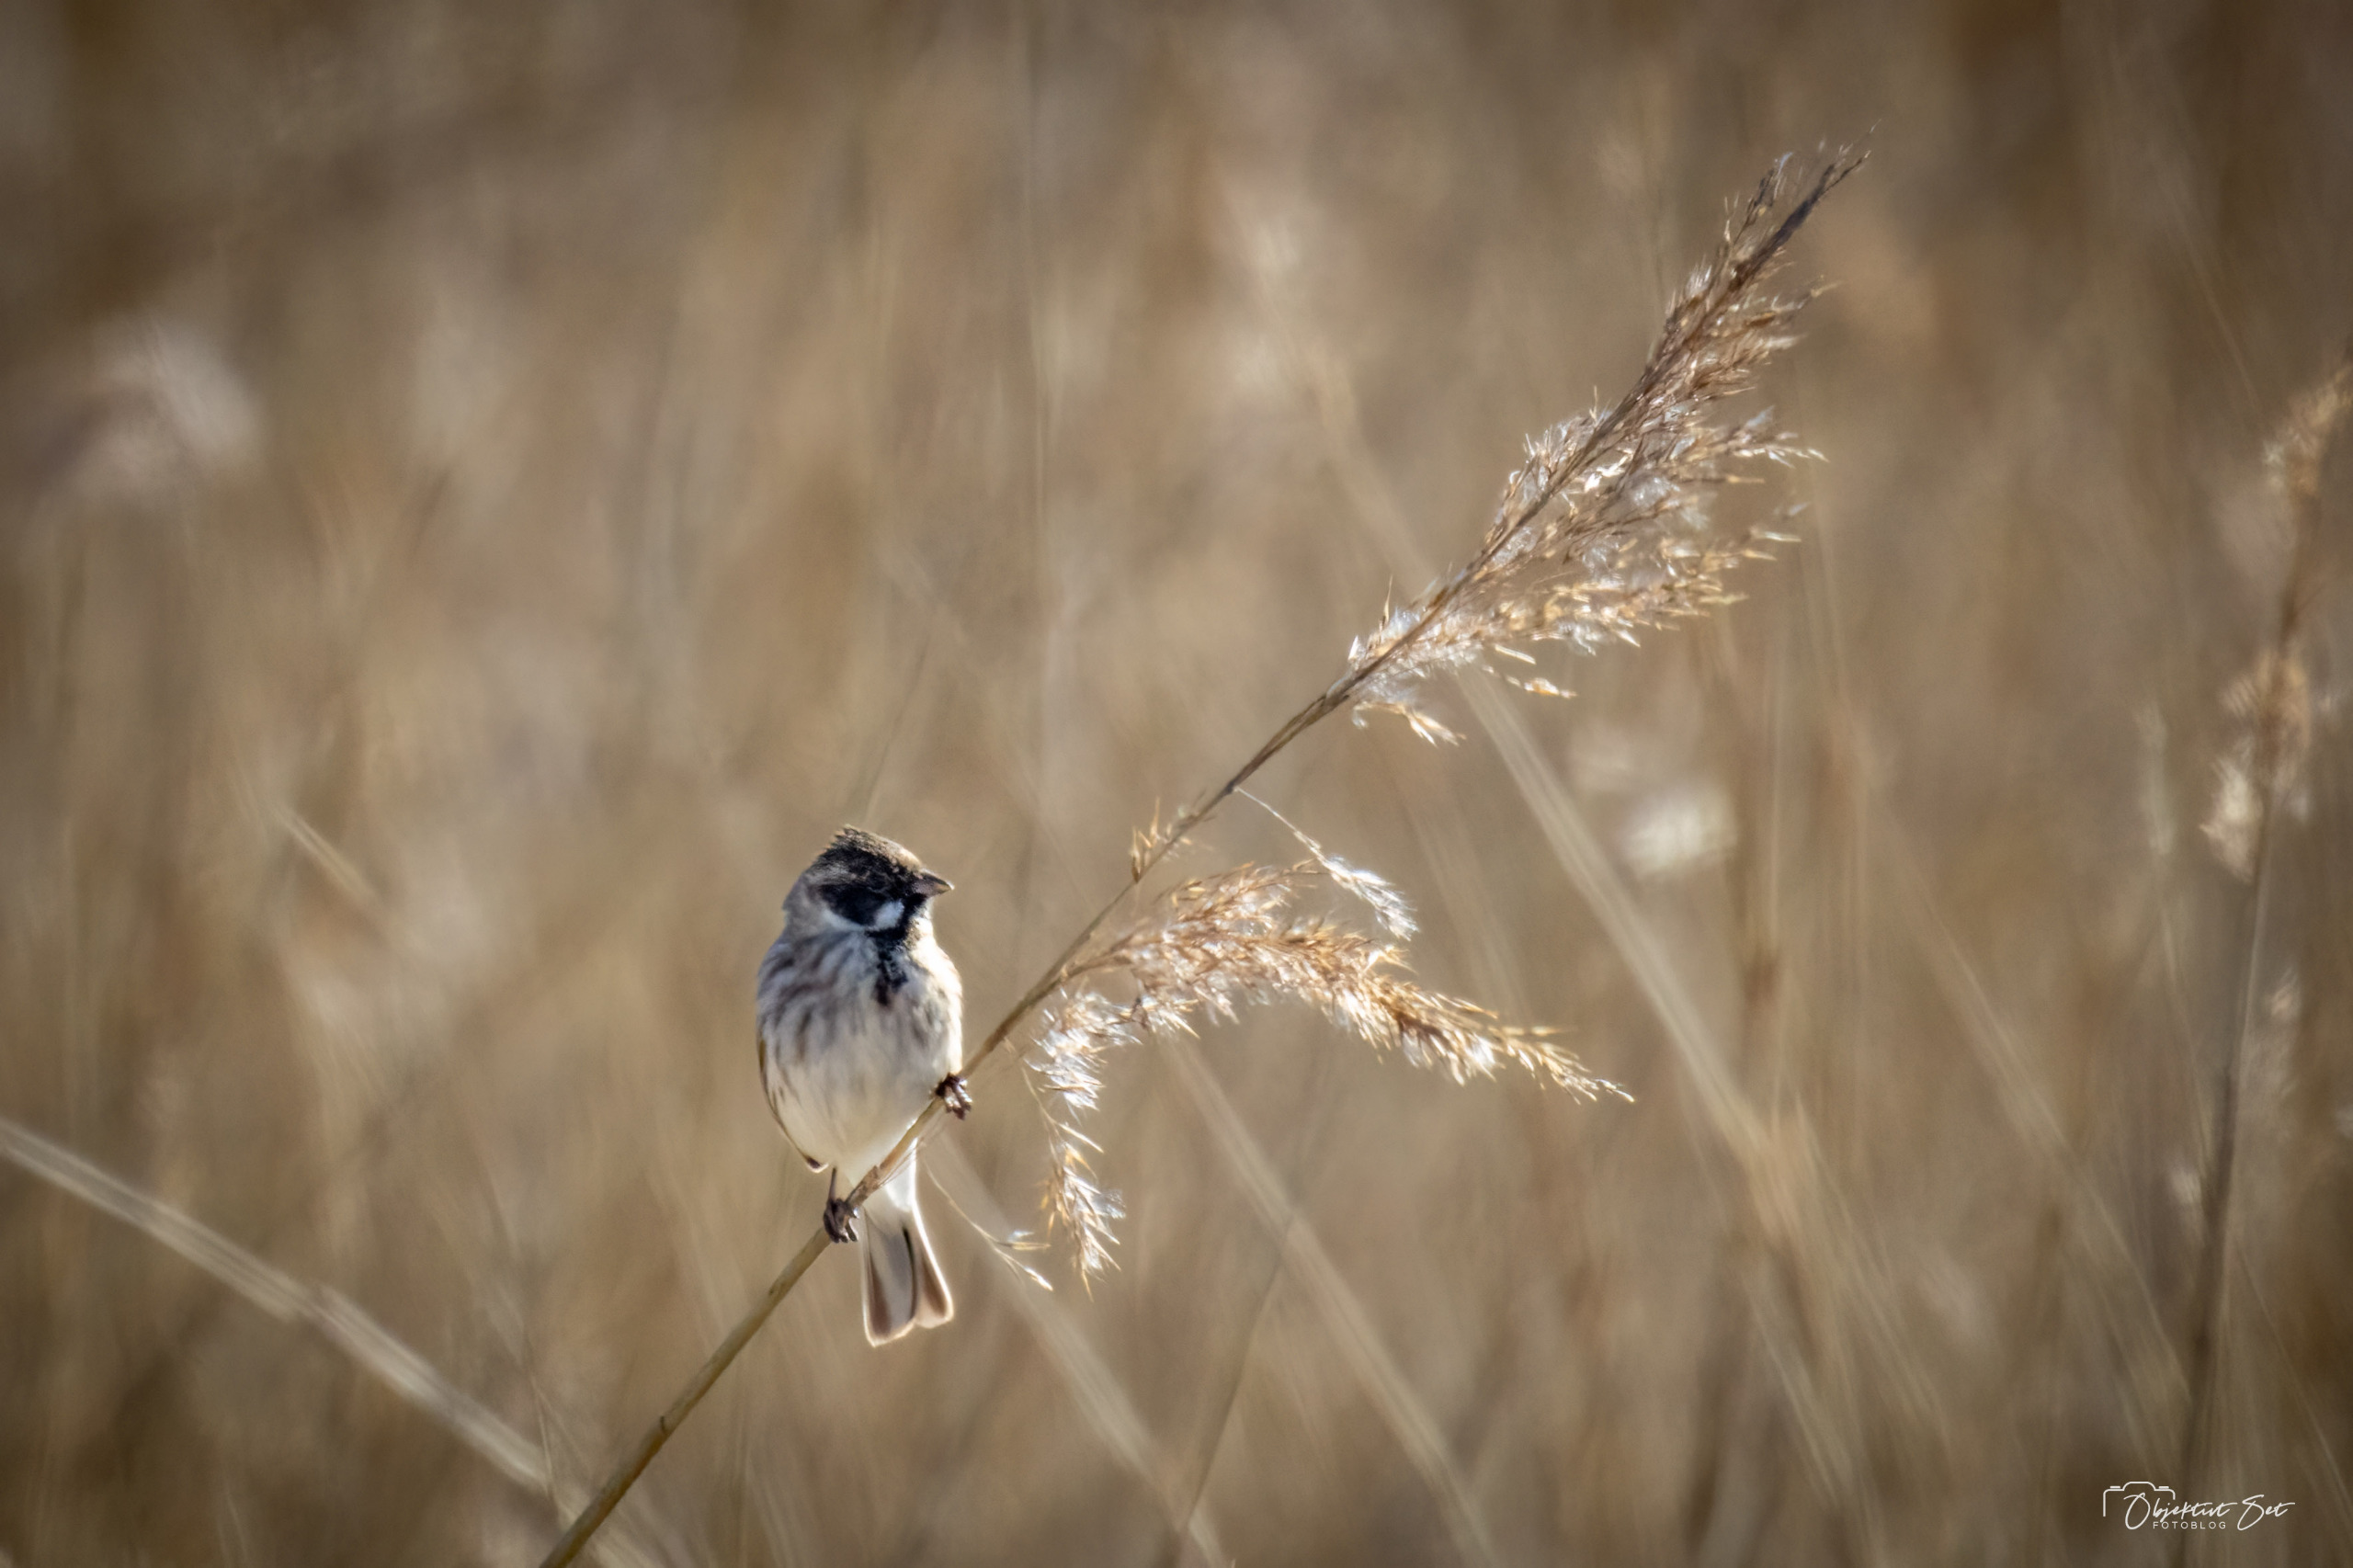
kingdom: Animalia
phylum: Chordata
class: Aves
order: Passeriformes
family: Emberizidae
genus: Emberiza
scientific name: Emberiza schoeniclus
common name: Rørspurv
